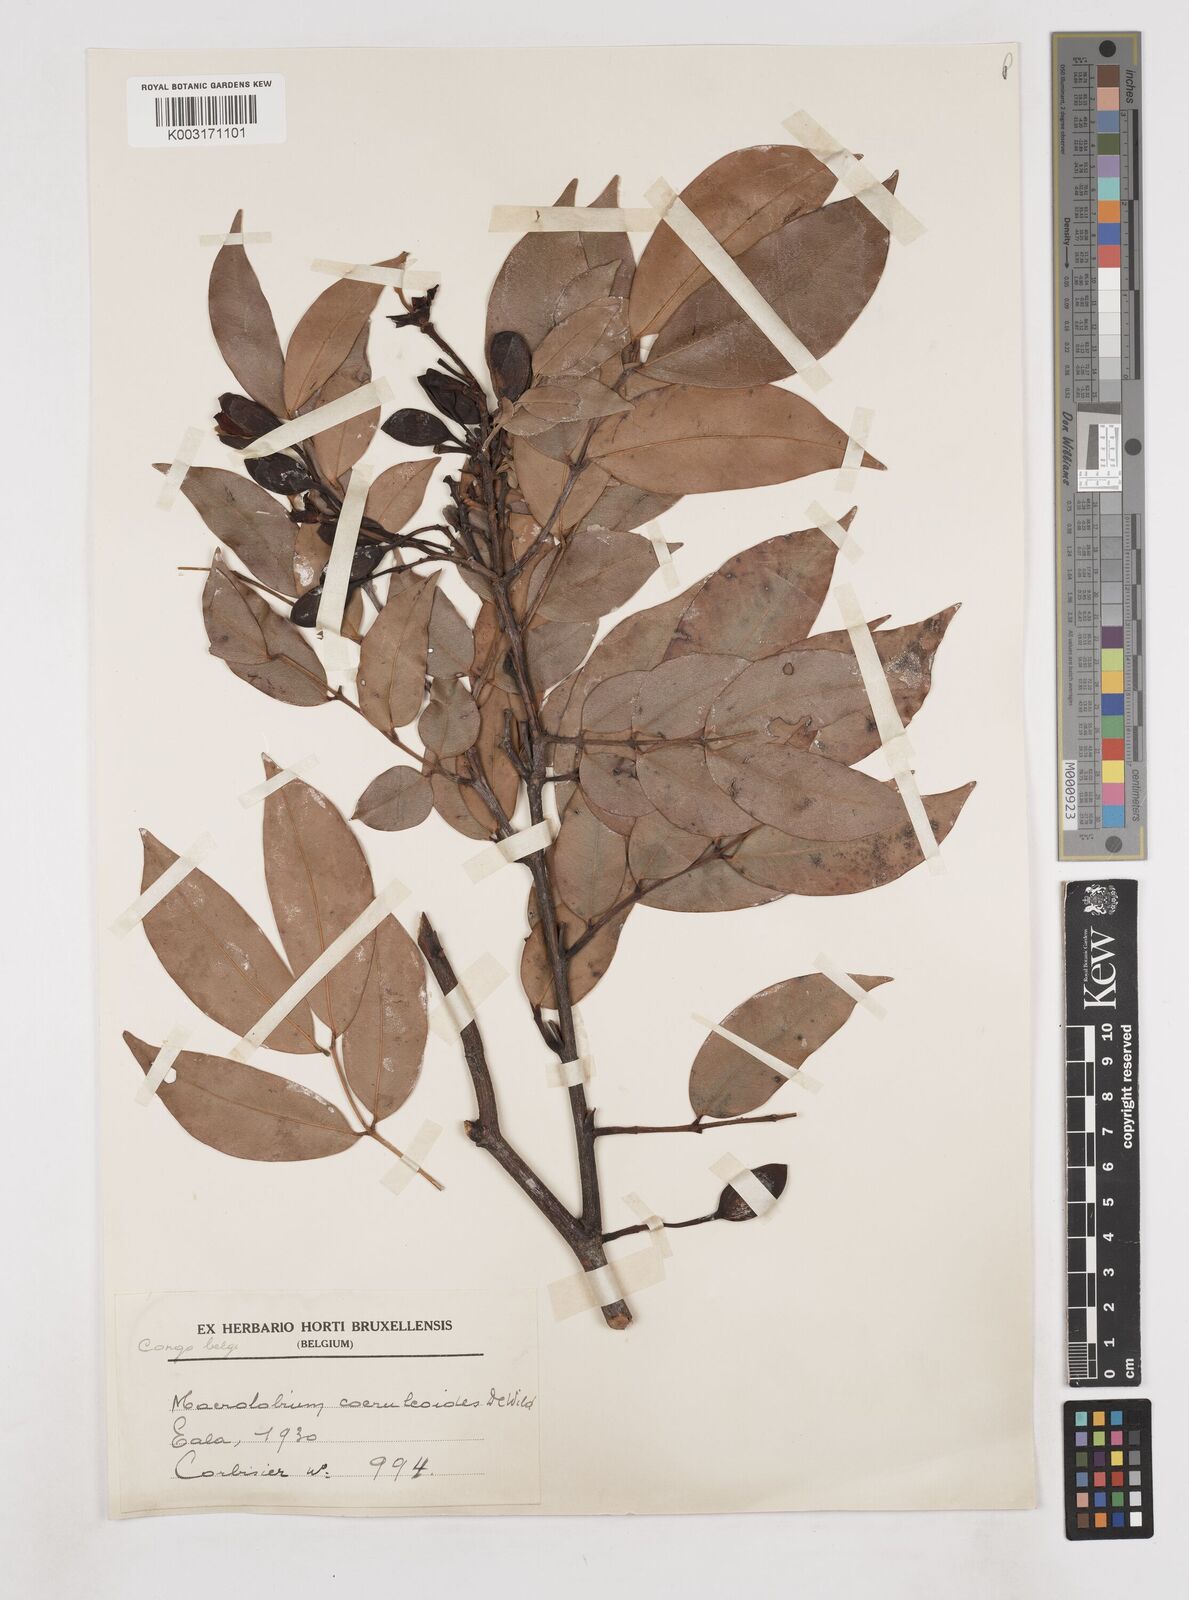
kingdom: Plantae
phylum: Tracheophyta
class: Magnoliopsida
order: Fabales
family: Fabaceae
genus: Paramacrolobium
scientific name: Paramacrolobium coeruleum
